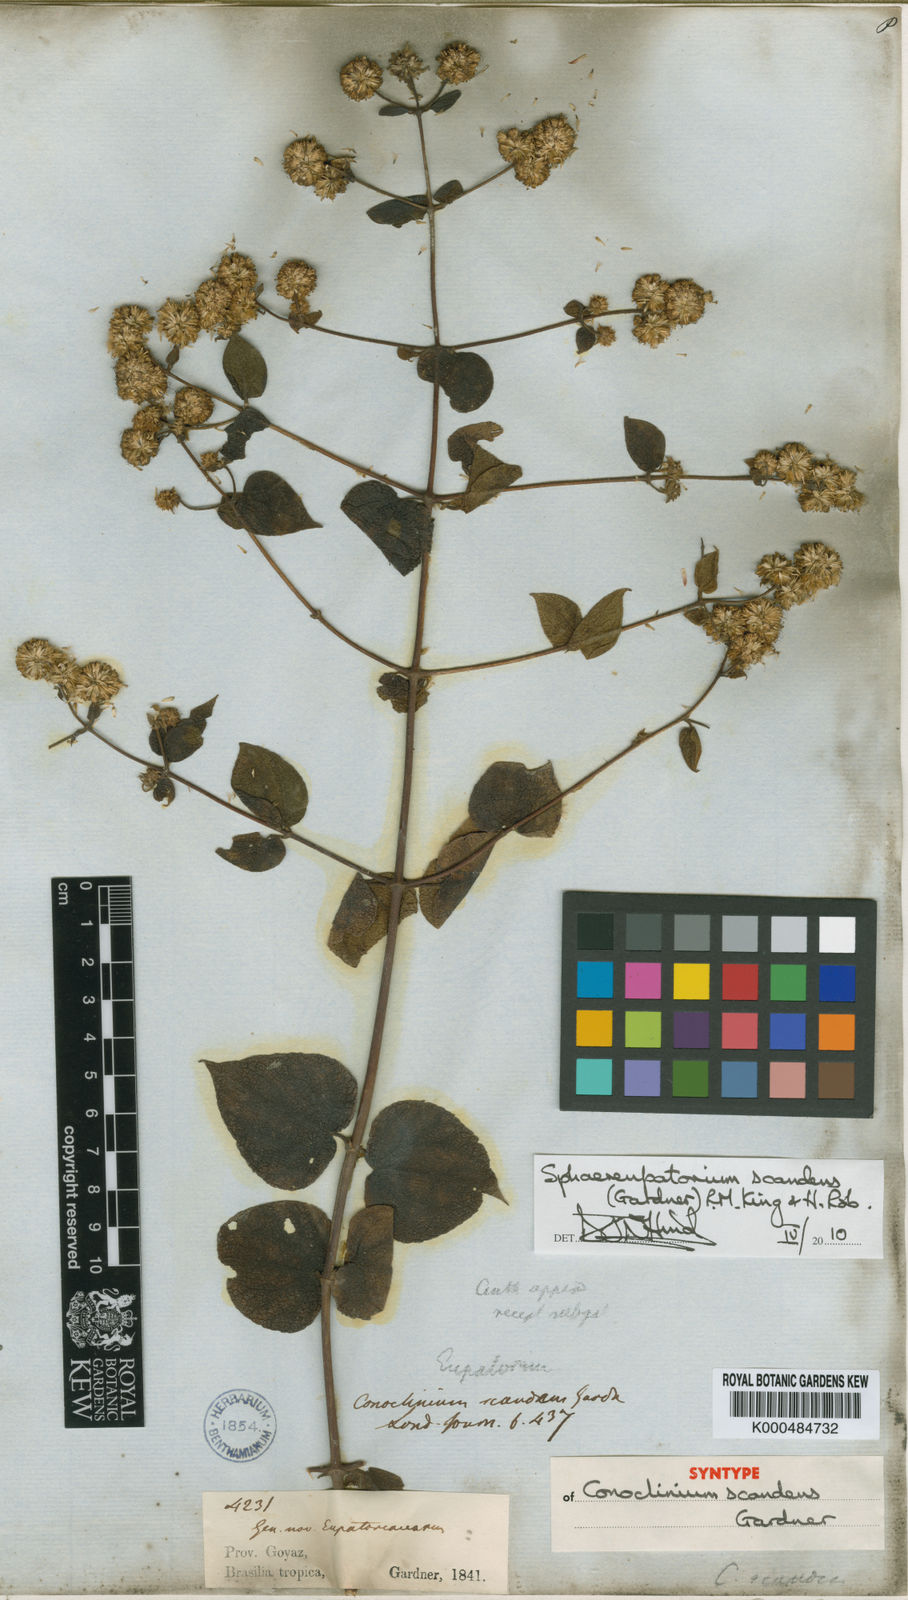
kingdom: Plantae
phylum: Tracheophyta
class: Magnoliopsida
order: Asterales
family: Asteraceae
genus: Sphaereupatorium
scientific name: Sphaereupatorium scandens
